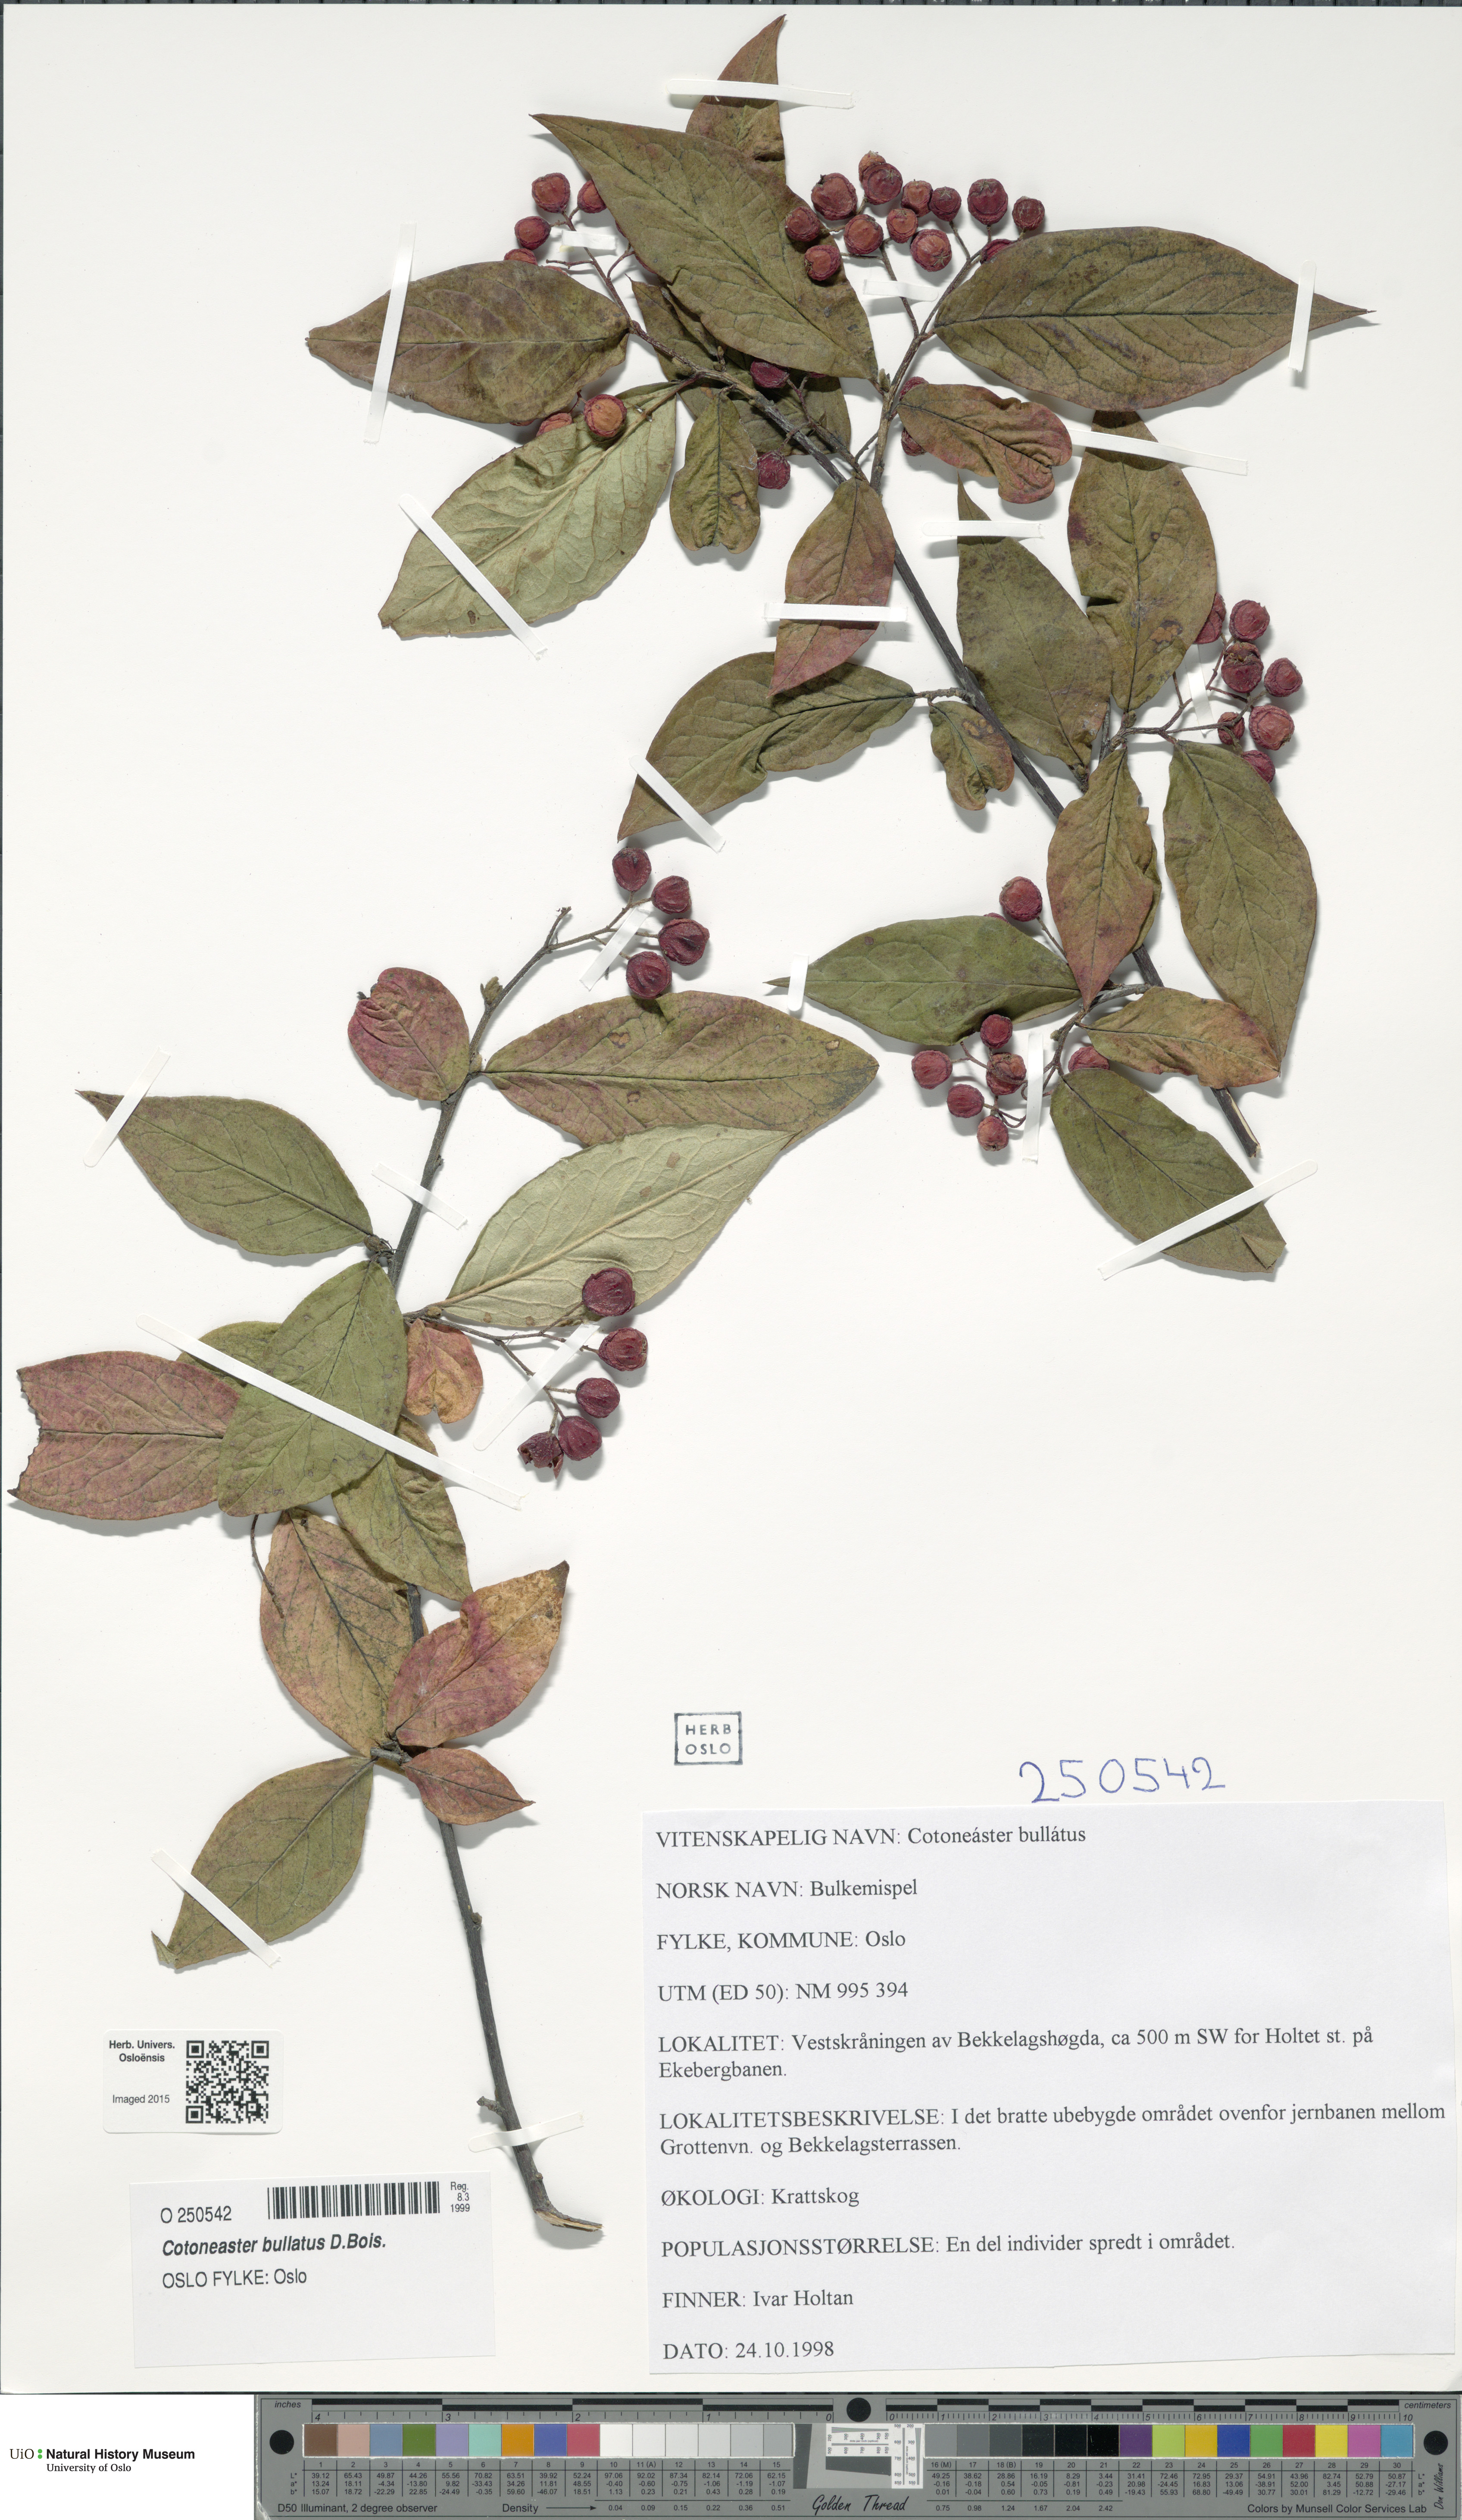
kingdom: Plantae
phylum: Tracheophyta
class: Magnoliopsida
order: Rosales
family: Rosaceae
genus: Cotoneaster
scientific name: Cotoneaster bullatus
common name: Hollyberry cotoneaster
